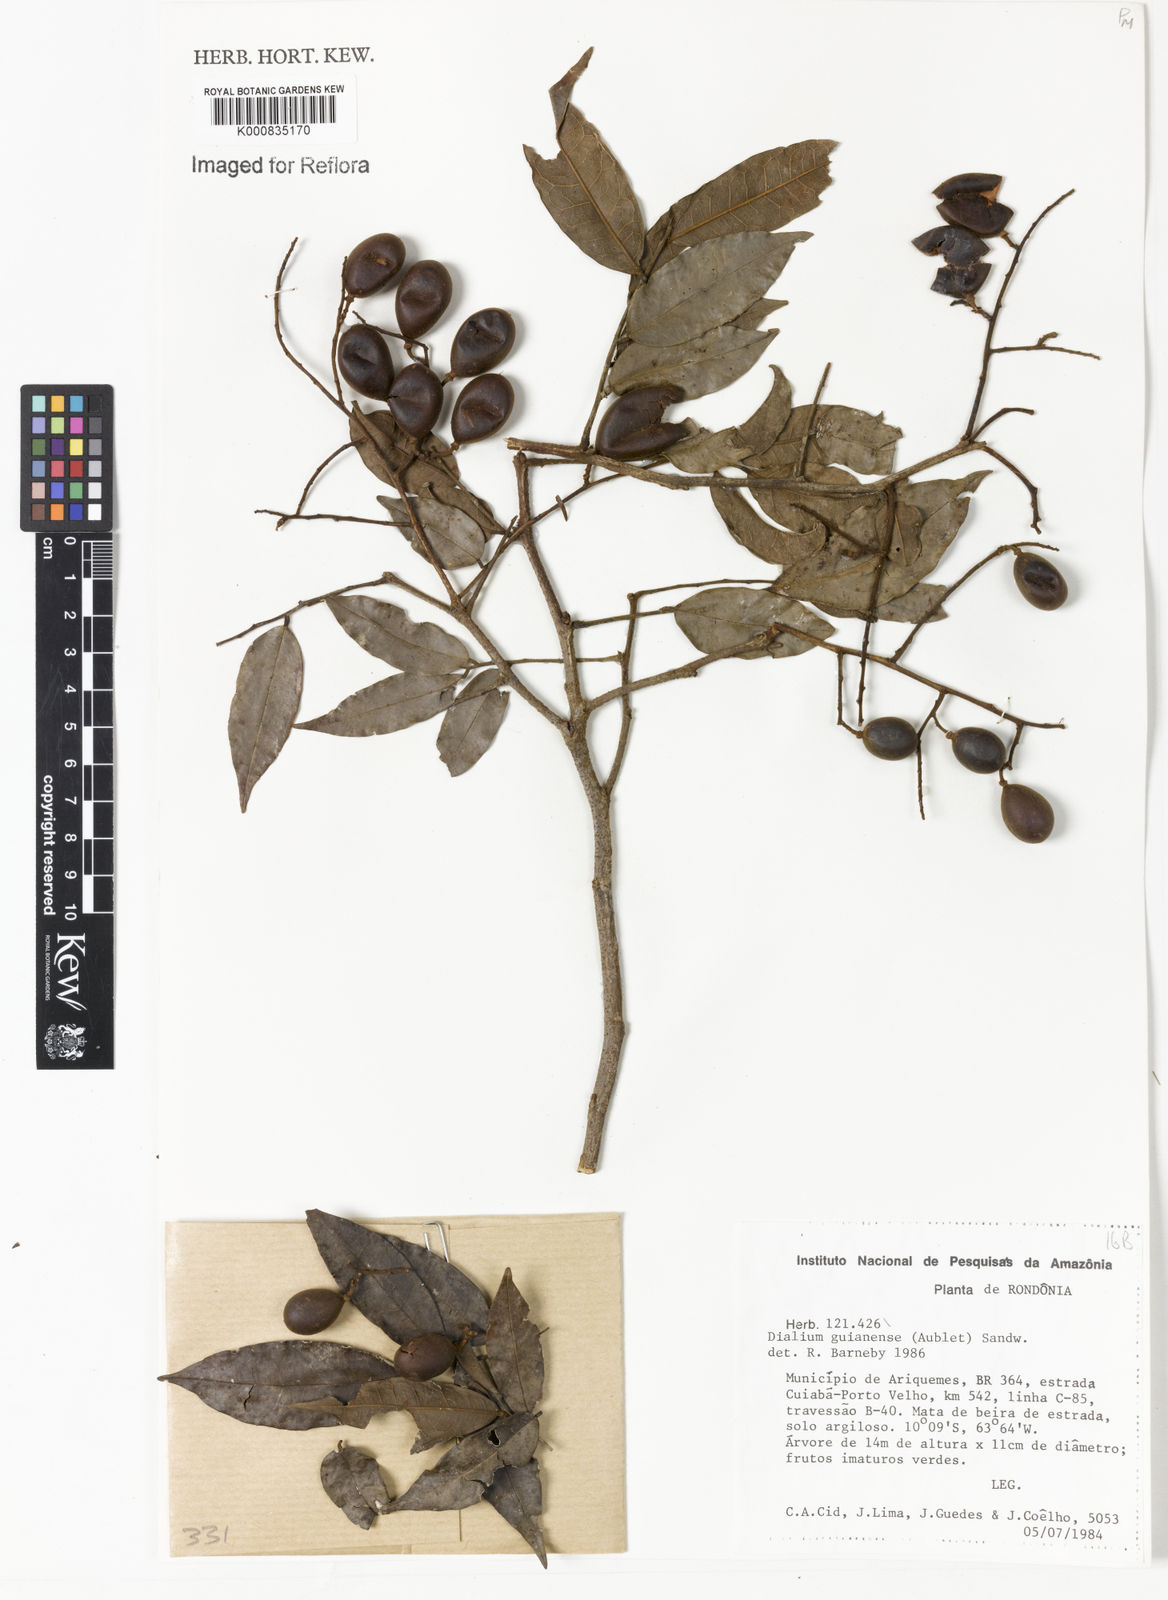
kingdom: Plantae
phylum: Tracheophyta
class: Magnoliopsida
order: Fabales
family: Fabaceae
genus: Dialium
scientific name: Dialium guianense
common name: Ironwood
